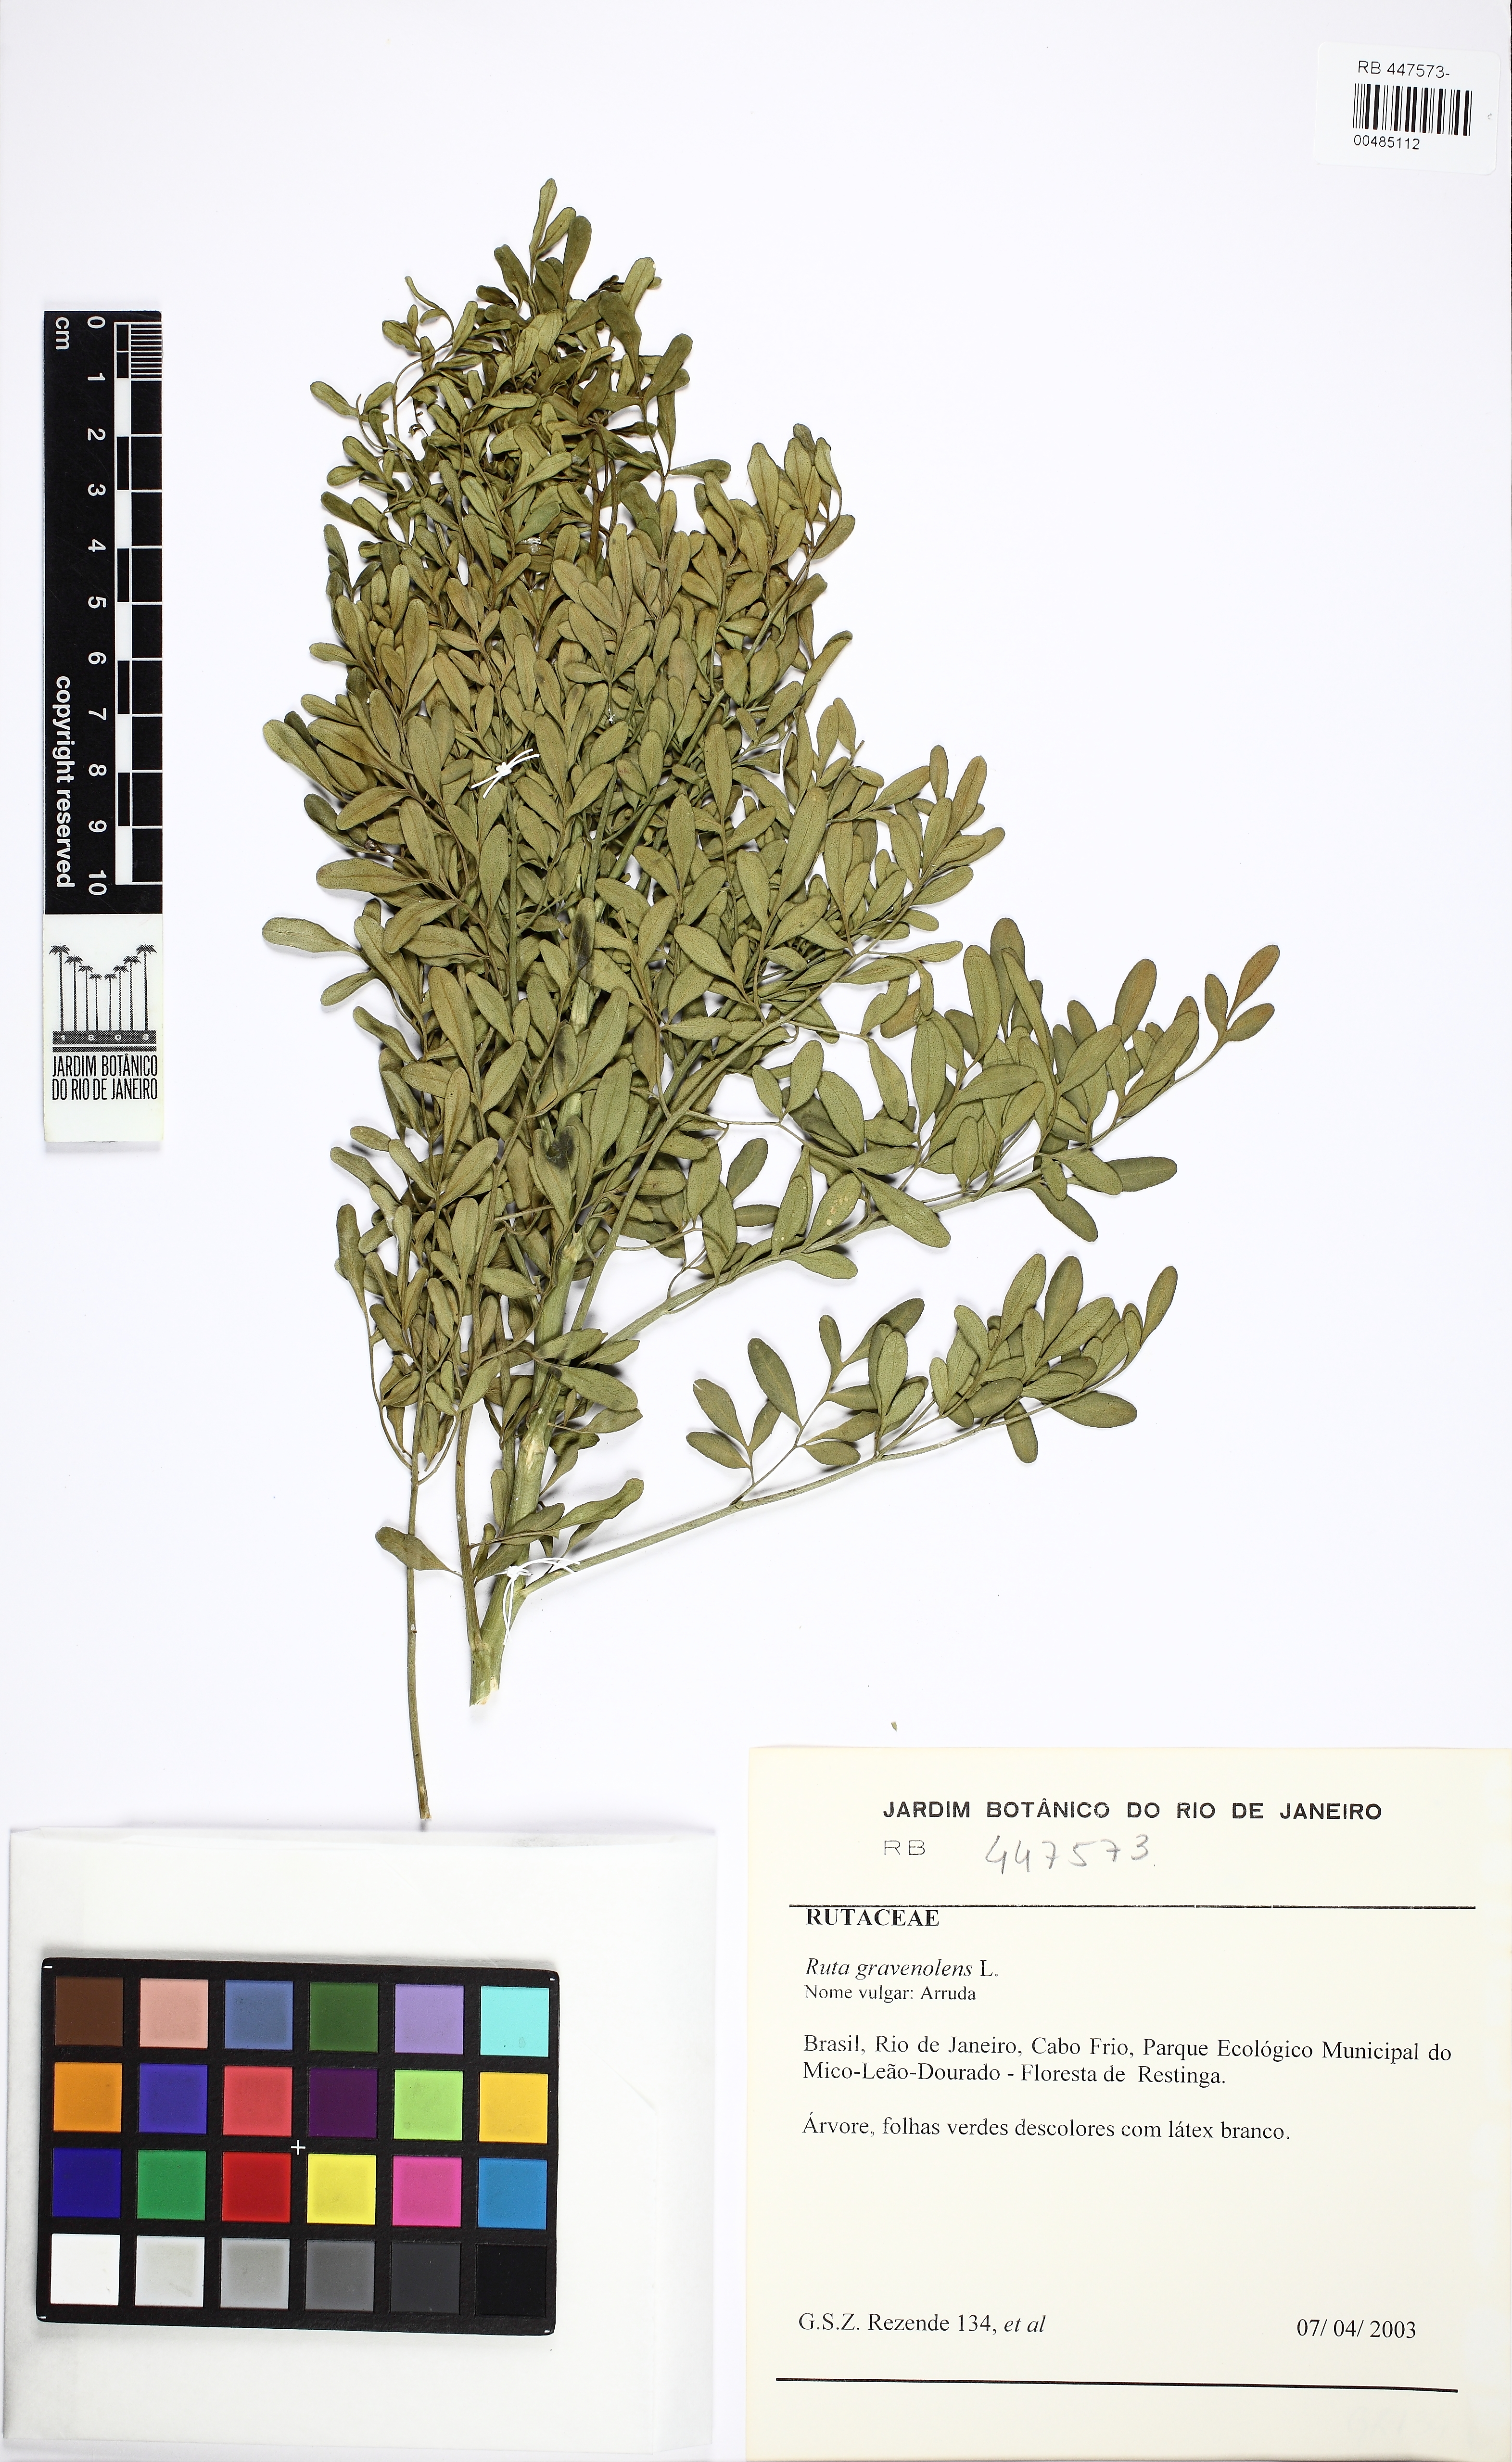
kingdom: Plantae
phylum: Tracheophyta
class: Magnoliopsida
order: Sapindales
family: Rutaceae
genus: Ruta
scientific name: Ruta graveolens
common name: Common rue
